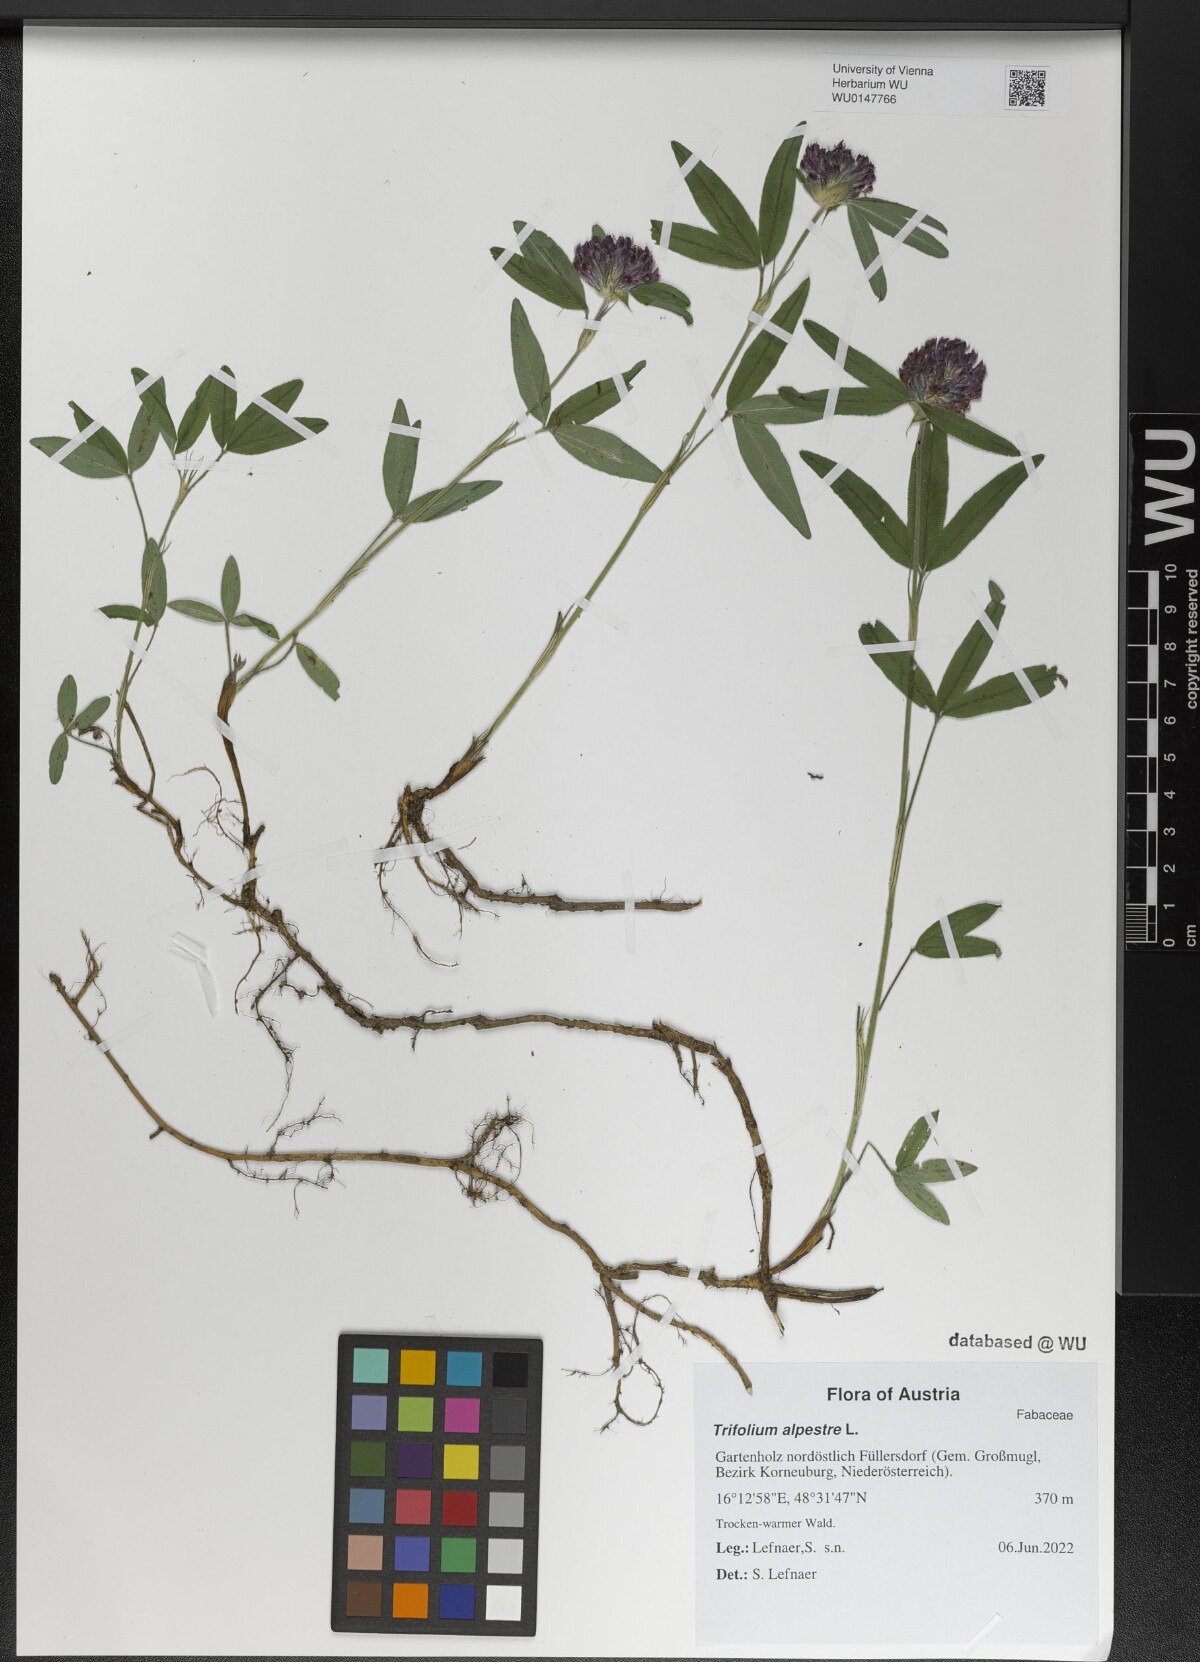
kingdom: Plantae
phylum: Tracheophyta
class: Magnoliopsida
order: Fabales
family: Fabaceae
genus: Trifolium
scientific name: Trifolium alpestre
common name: Owl-head clover
